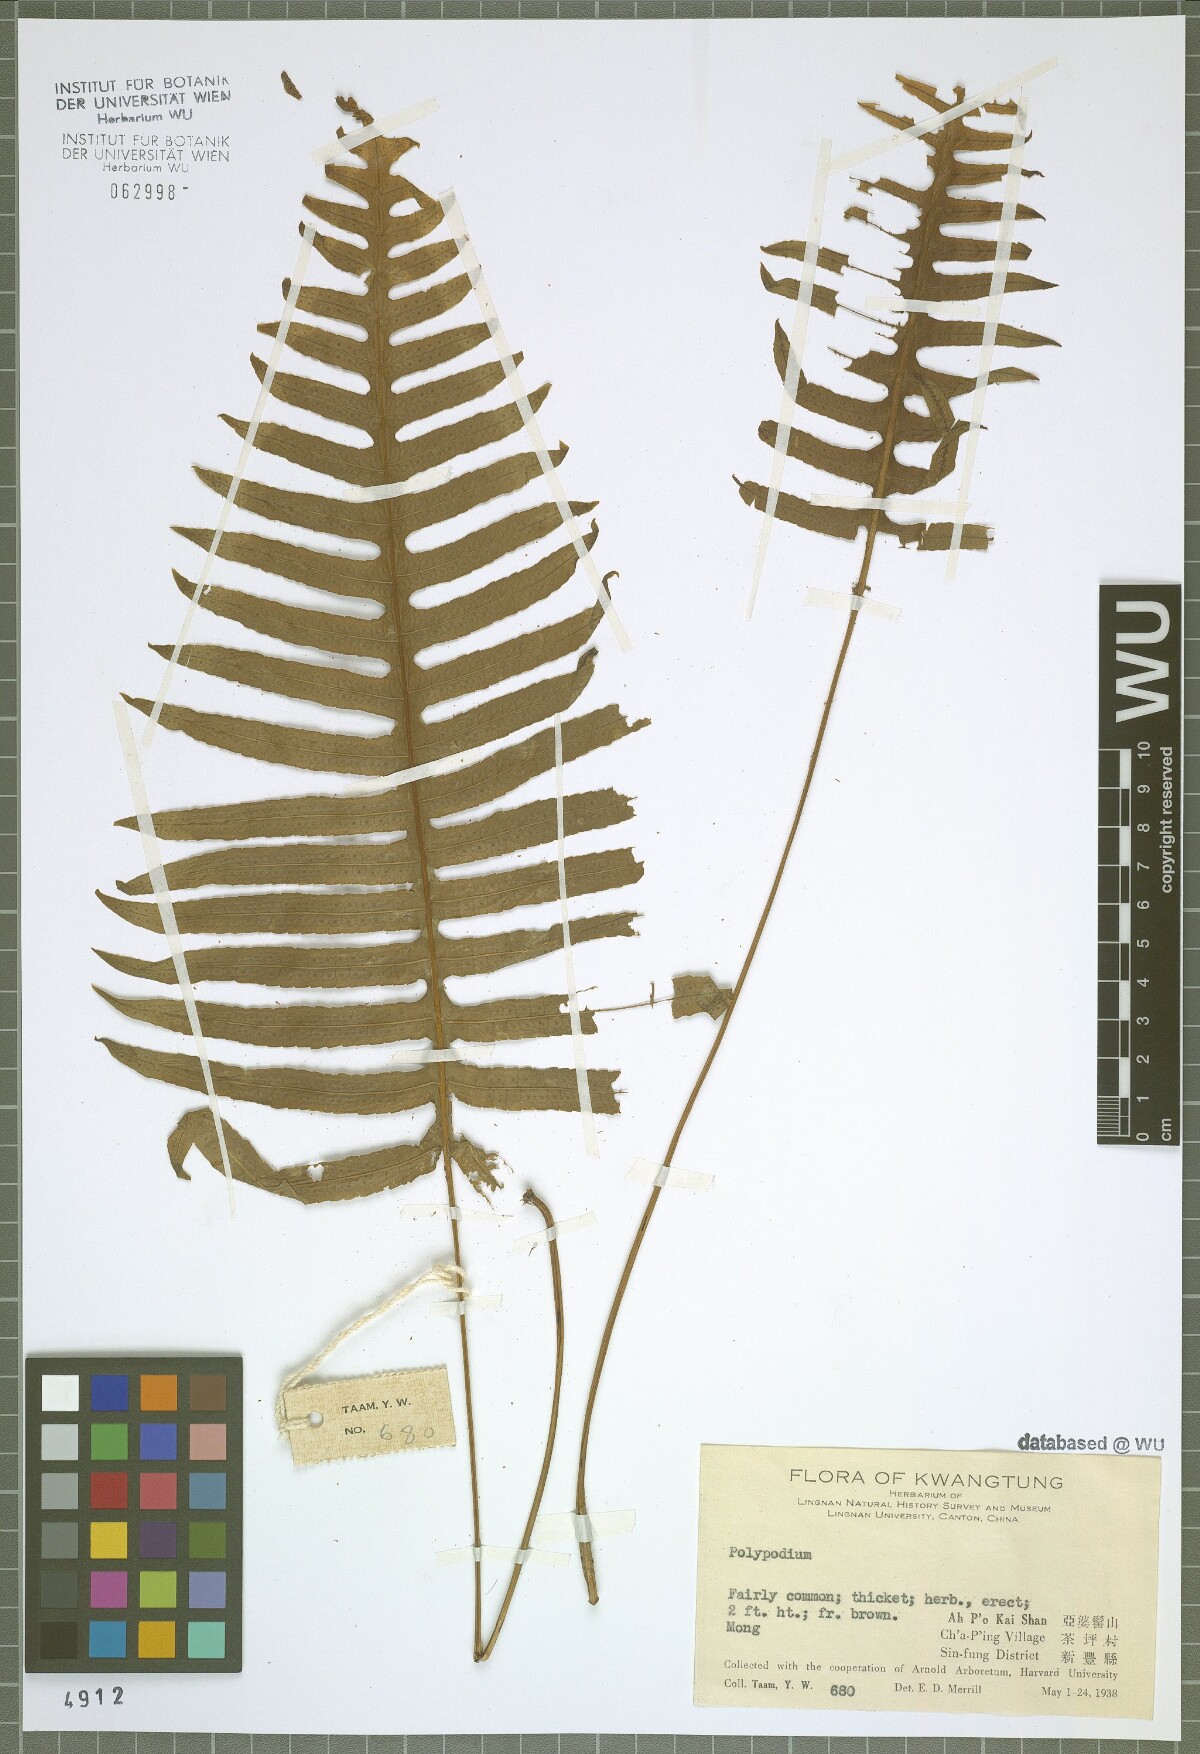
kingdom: Plantae
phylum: Tracheophyta
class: Polypodiopsida
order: Polypodiales
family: Polypodiaceae
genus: Polypodium
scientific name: Polypodium
